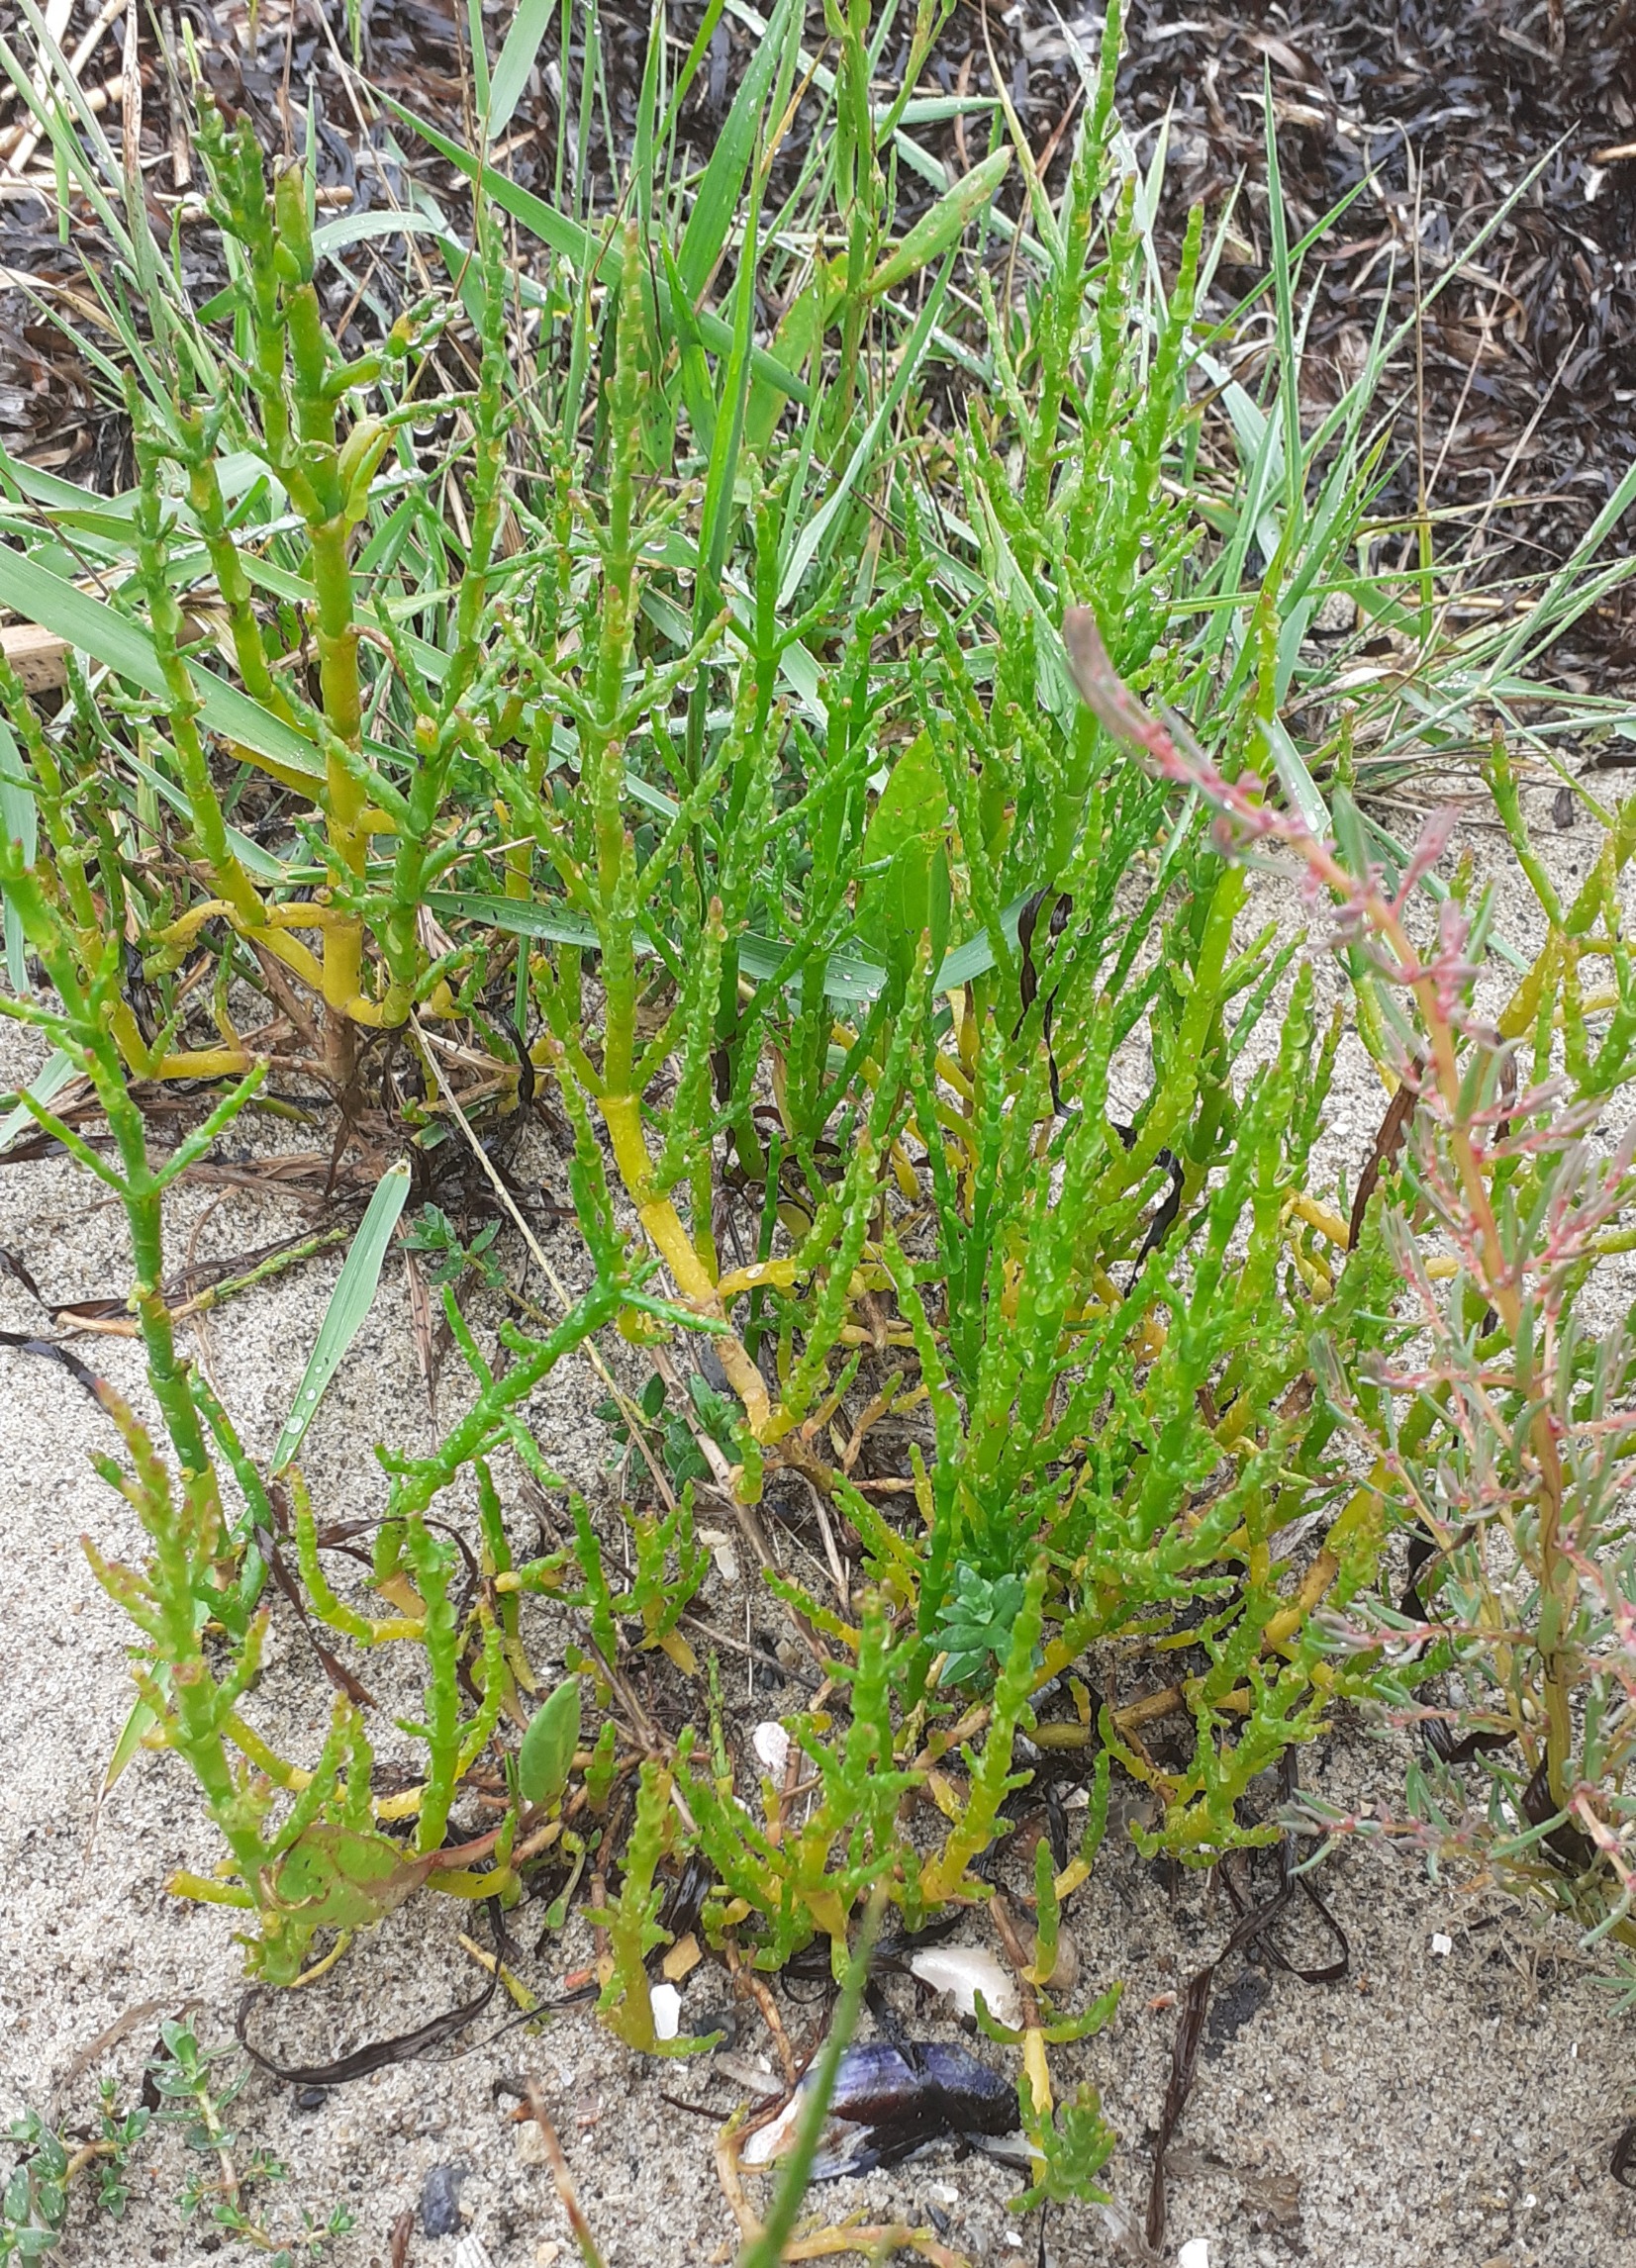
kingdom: Plantae
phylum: Tracheophyta
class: Magnoliopsida
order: Caryophyllales
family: Amaranthaceae
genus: Salicornia
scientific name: Salicornia europaea
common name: Almindelig salturt
